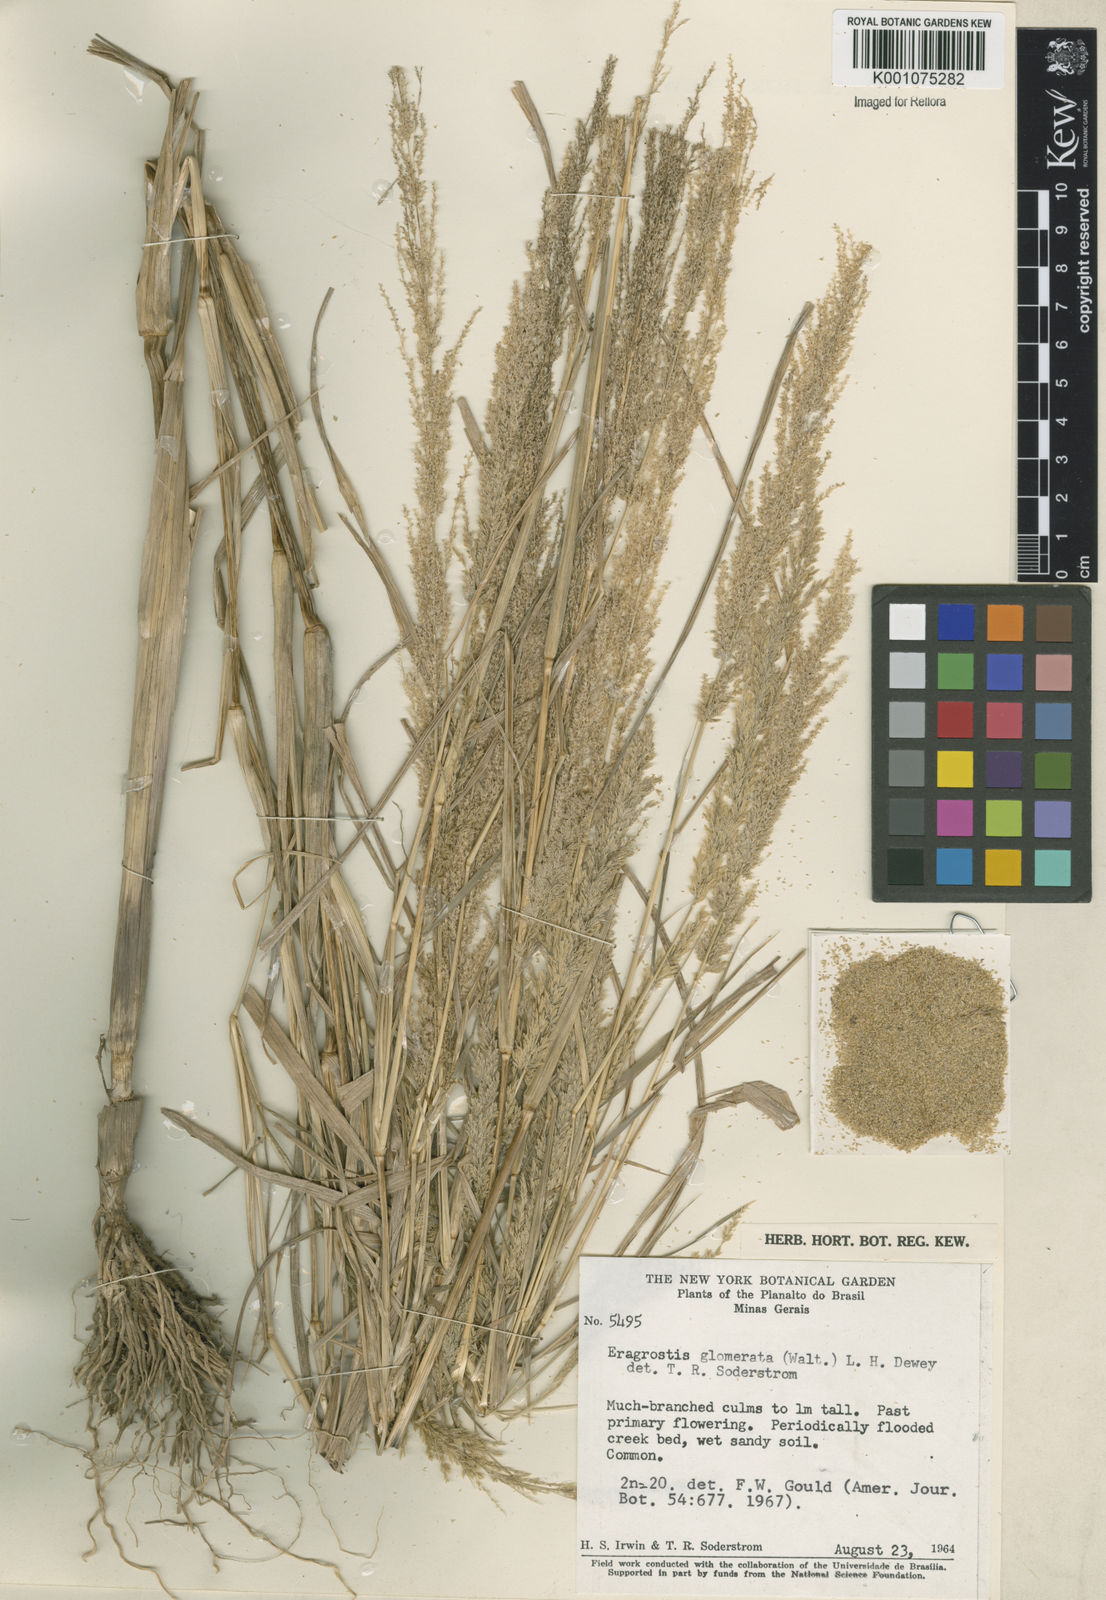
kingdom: Plantae
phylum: Tracheophyta
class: Liliopsida
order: Poales
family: Poaceae
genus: Eragrostis
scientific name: Eragrostis japonica
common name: Pond lovegrass
